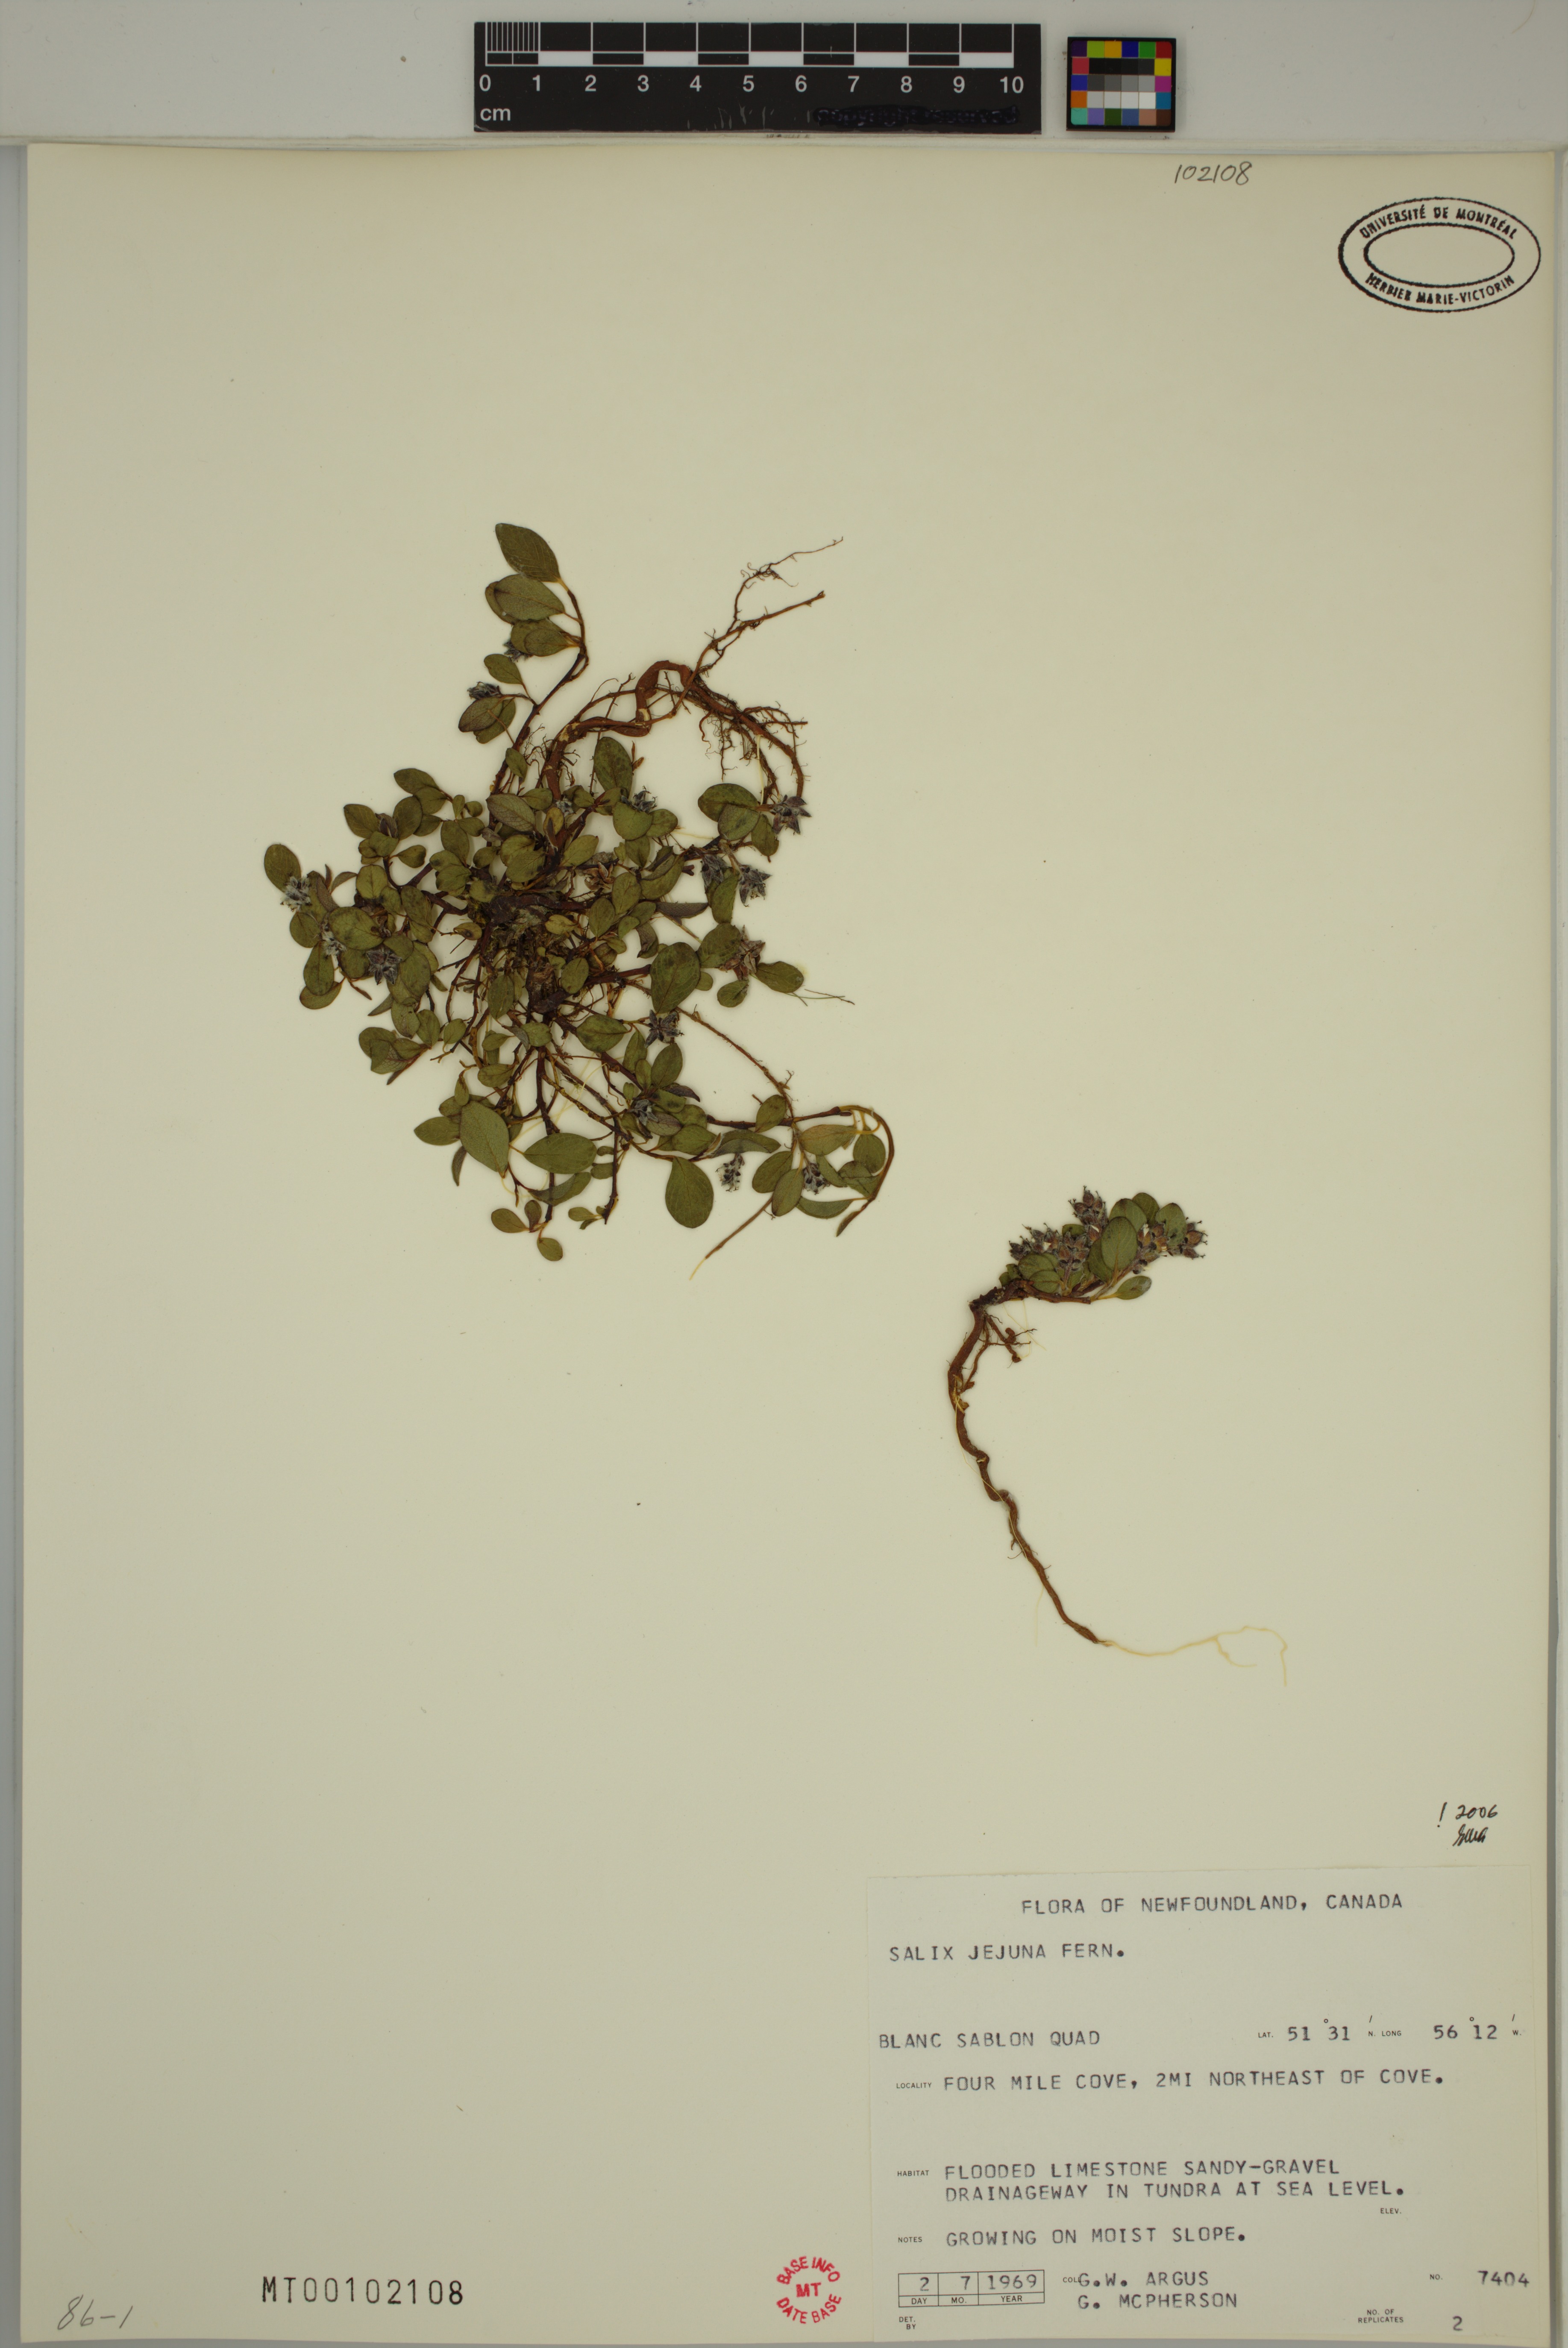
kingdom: Plantae
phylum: Tracheophyta
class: Magnoliopsida
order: Malpighiales
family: Salicaceae
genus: Salix
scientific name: Salix jejuna
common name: Belle isle dwarf willow
